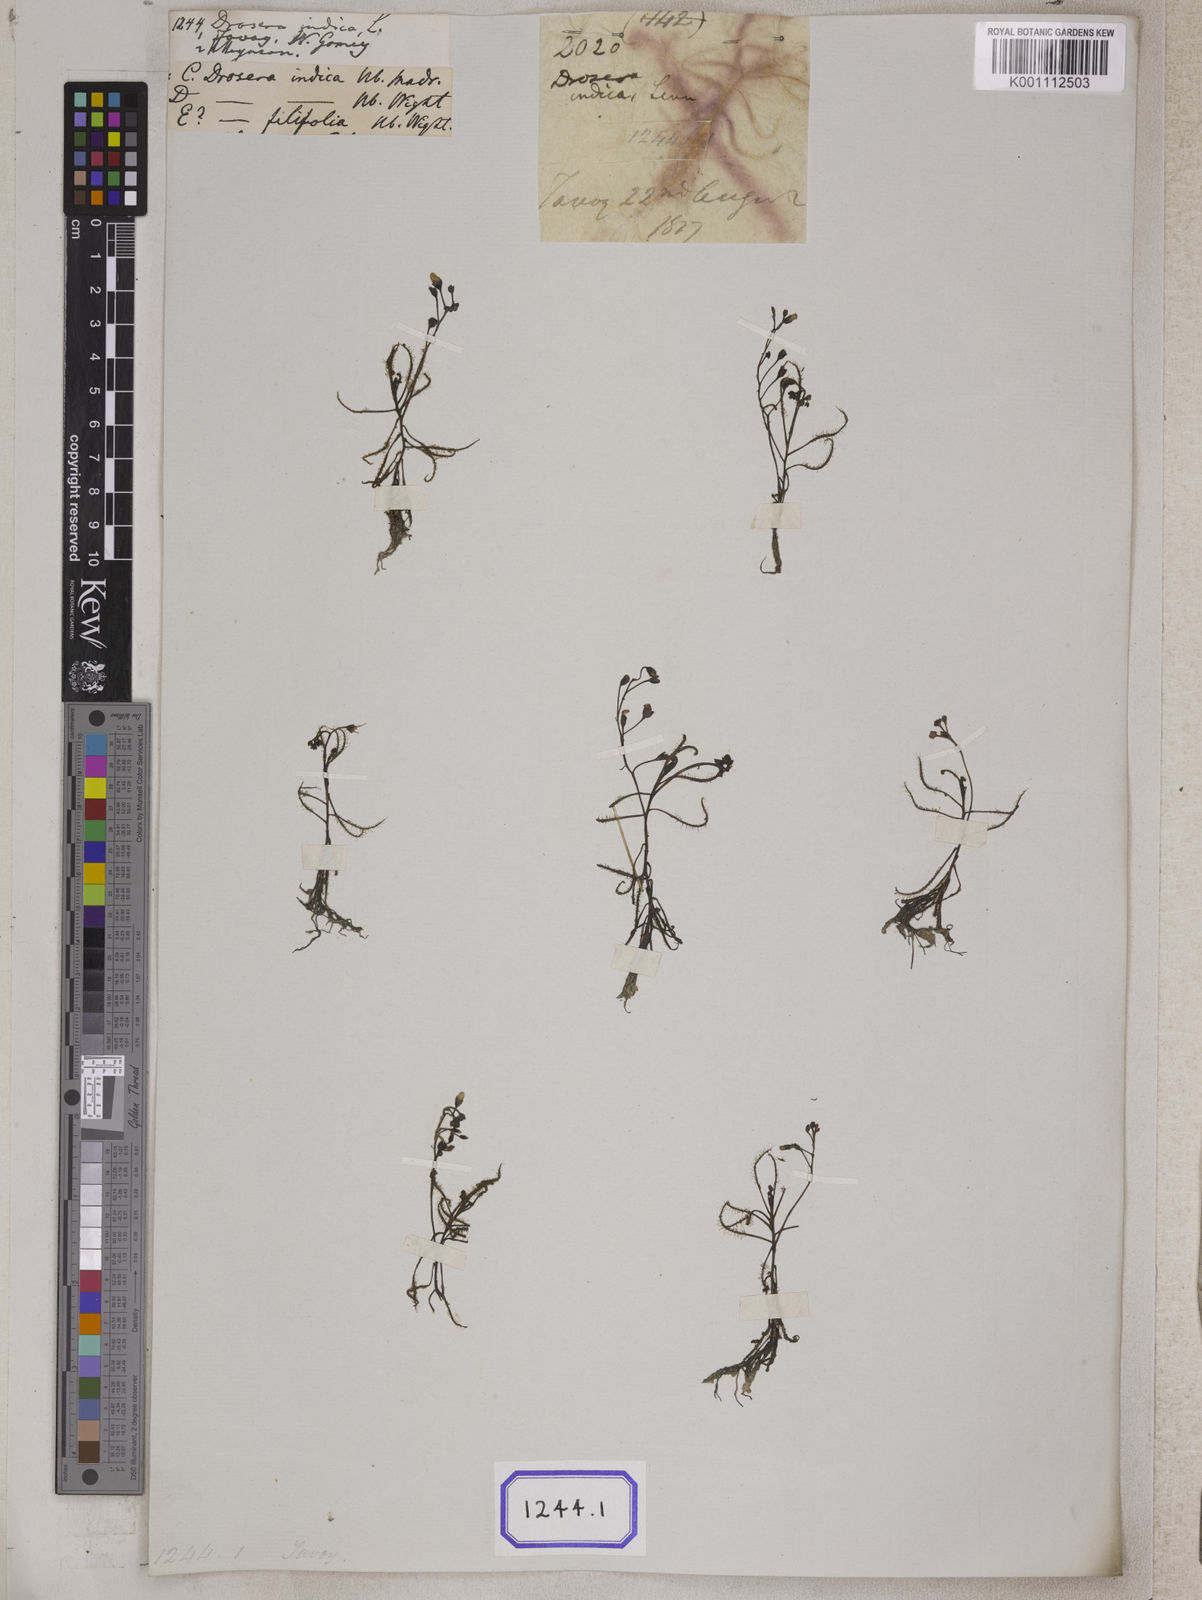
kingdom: Plantae
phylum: Tracheophyta
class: Magnoliopsida
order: Caryophyllales
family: Droseraceae
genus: Drosera
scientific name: Drosera indica
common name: Indian sundew
